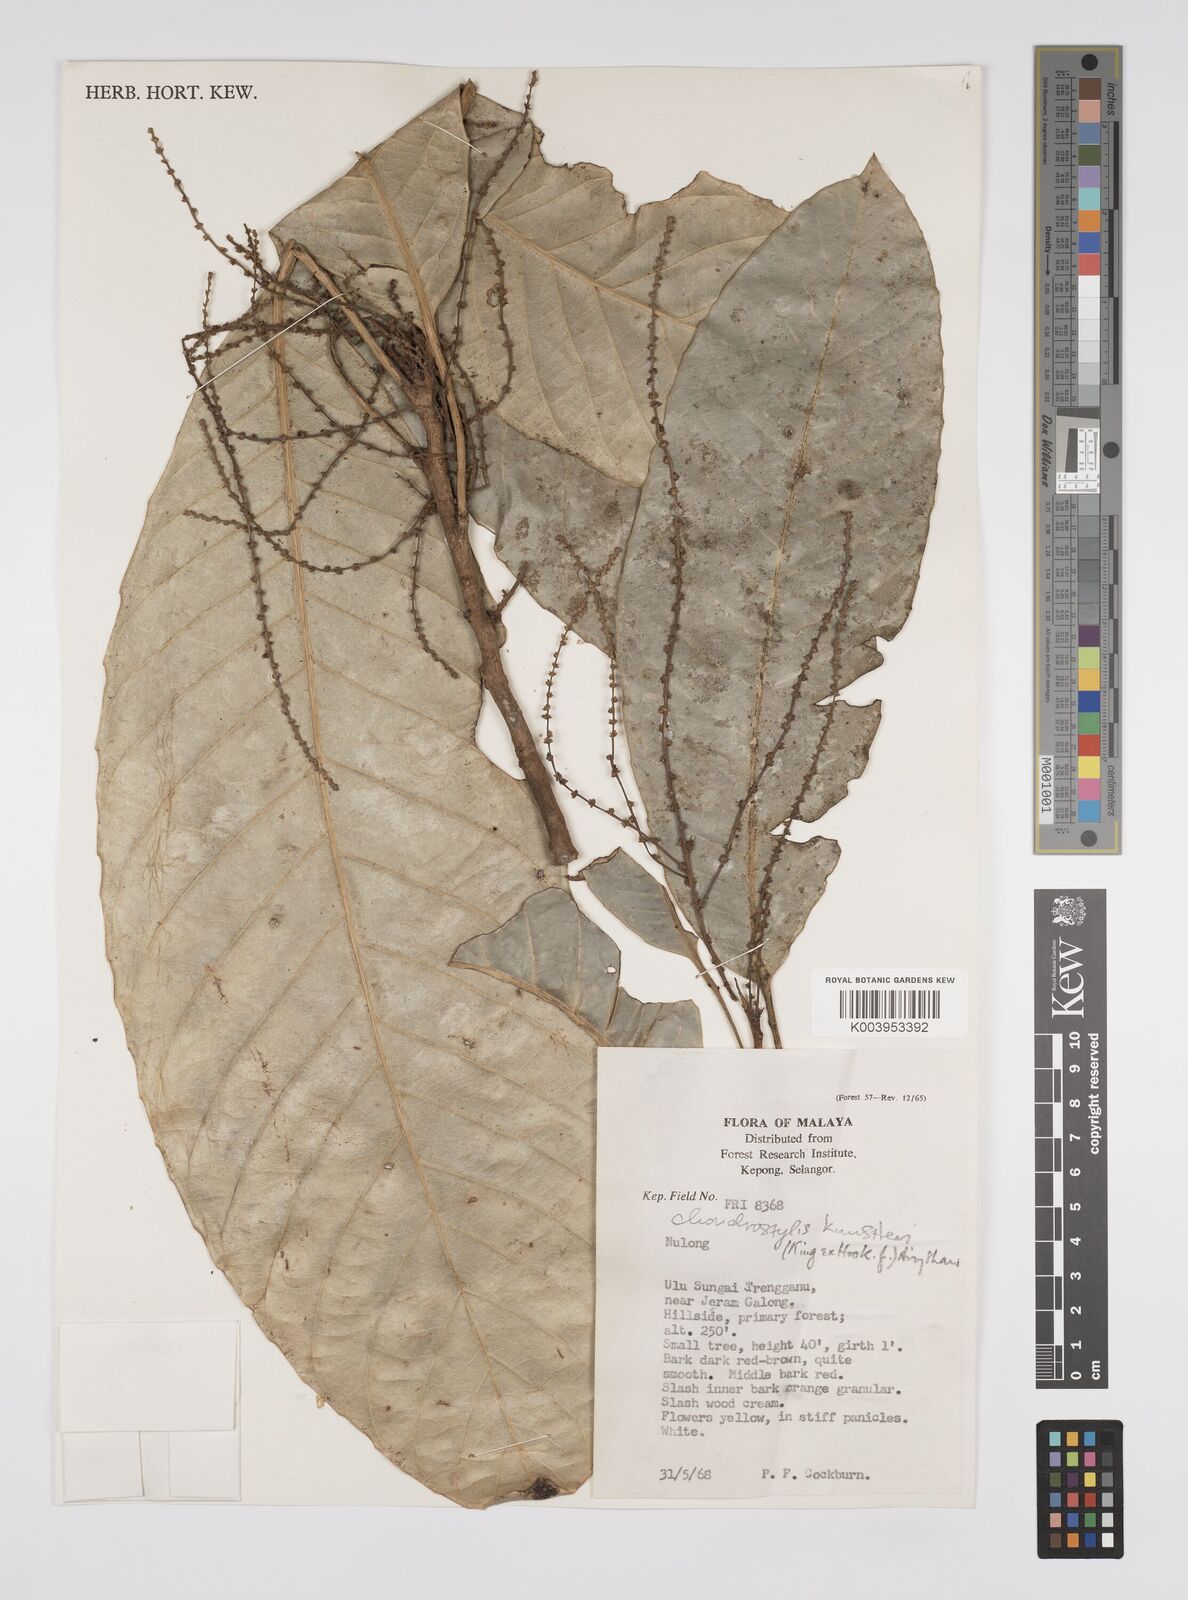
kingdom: Plantae
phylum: Tracheophyta
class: Magnoliopsida
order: Malpighiales
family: Euphorbiaceae
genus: Chondrostylis
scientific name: Chondrostylis kunstleri
